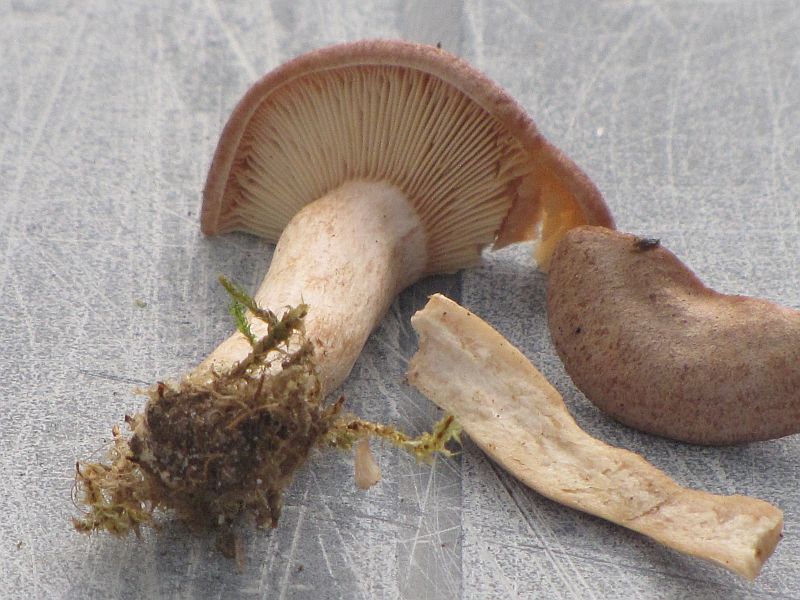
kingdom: Fungi
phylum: Basidiomycota
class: Agaricomycetes
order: Russulales
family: Russulaceae
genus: Lactarius
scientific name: Lactarius mammosus
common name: kokosbrun mælkehat
